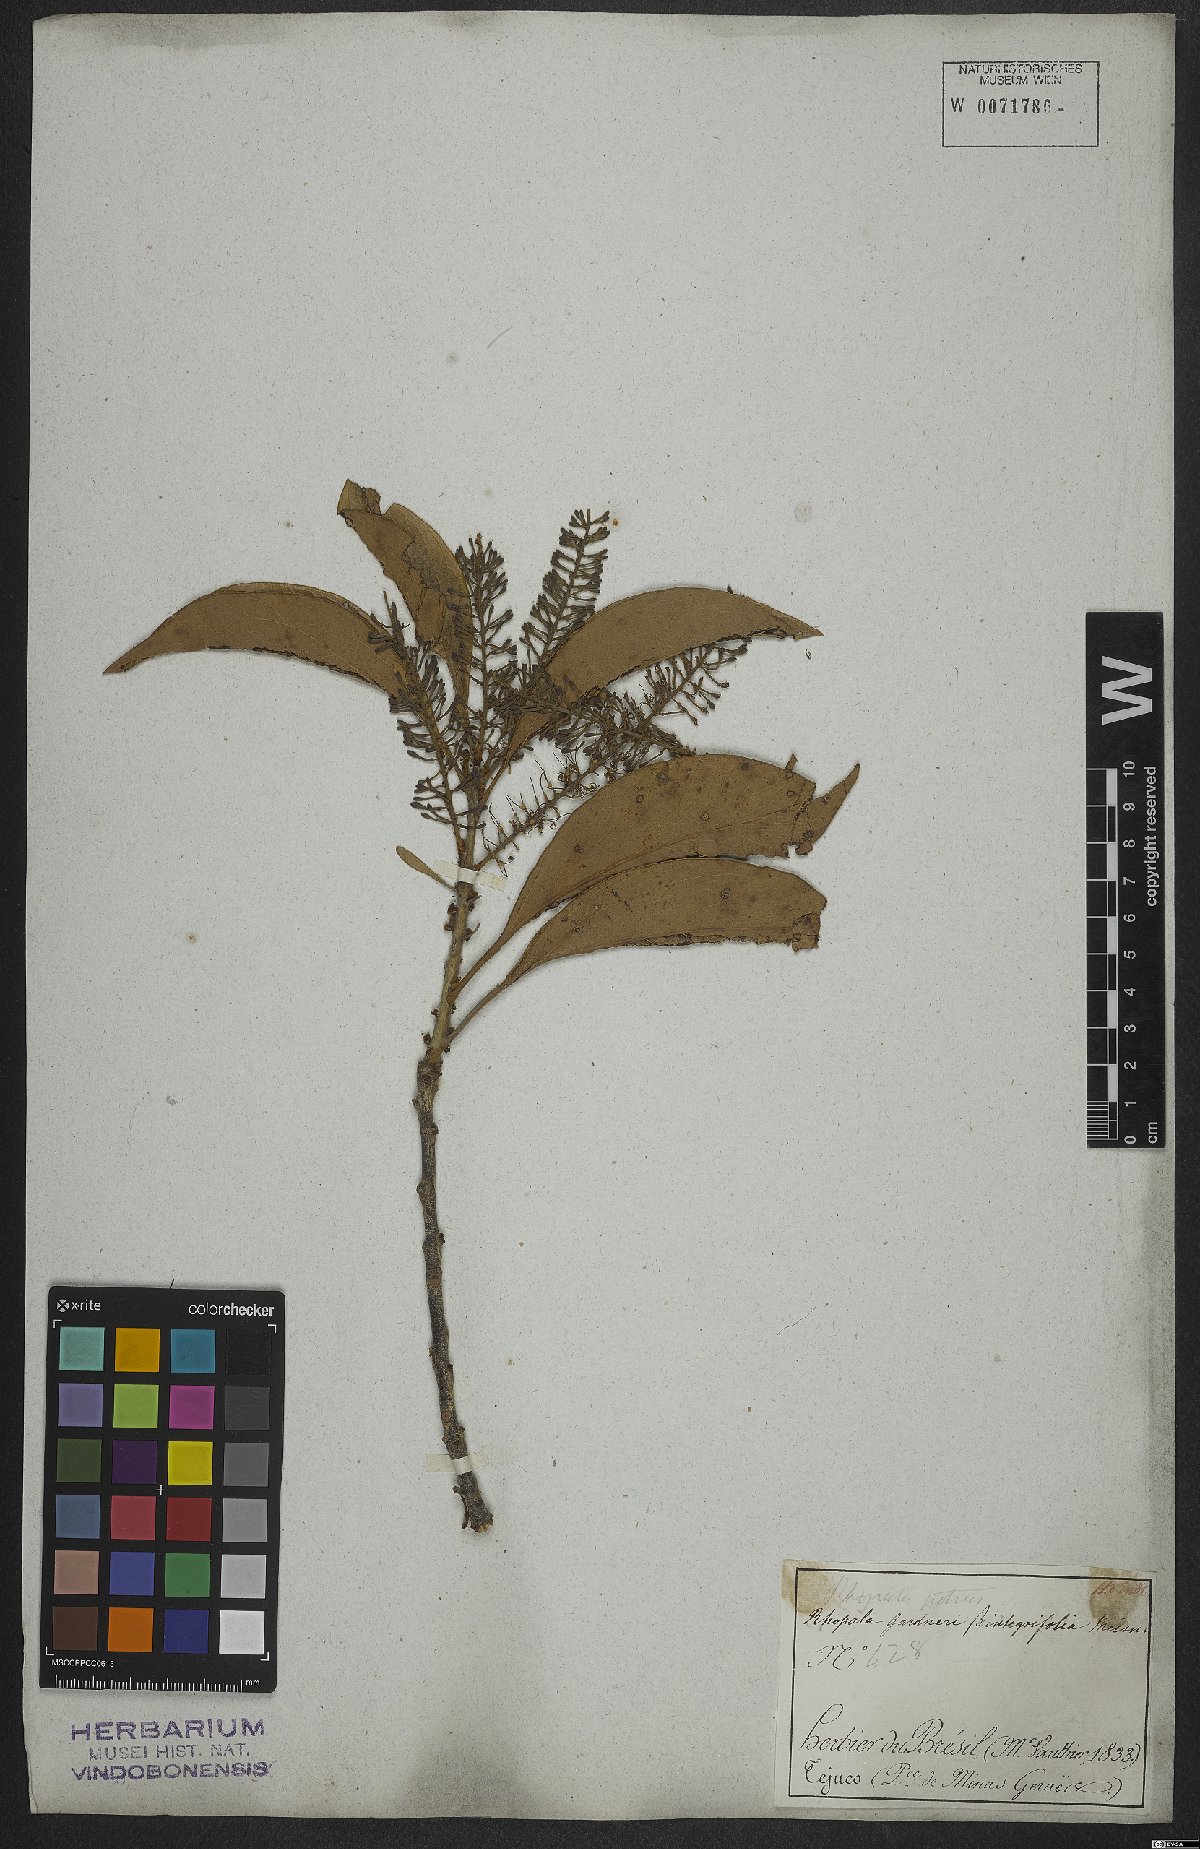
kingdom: Plantae
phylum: Tracheophyta
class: Magnoliopsida
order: Proteales
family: Proteaceae
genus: Roupala
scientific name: Roupala montana
